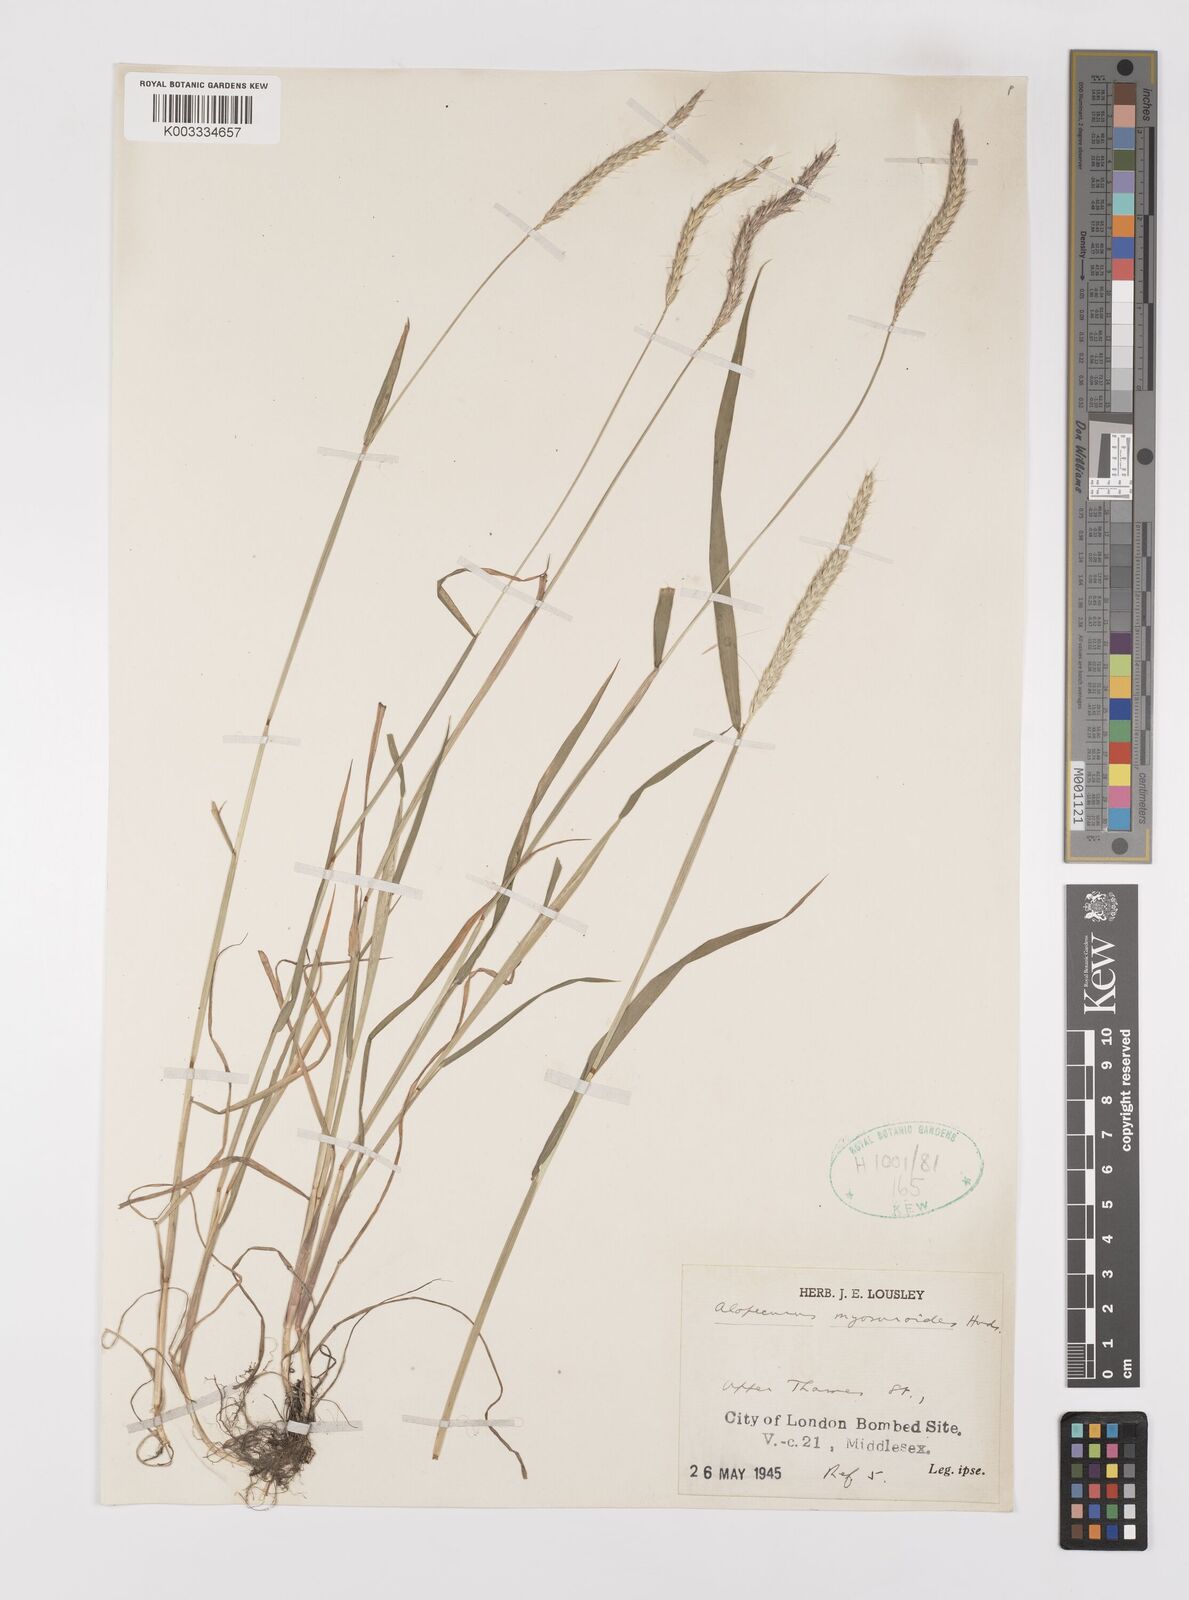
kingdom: Plantae
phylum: Tracheophyta
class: Liliopsida
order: Poales
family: Poaceae
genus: Alopecurus
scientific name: Alopecurus myosuroides
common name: Black-grass
